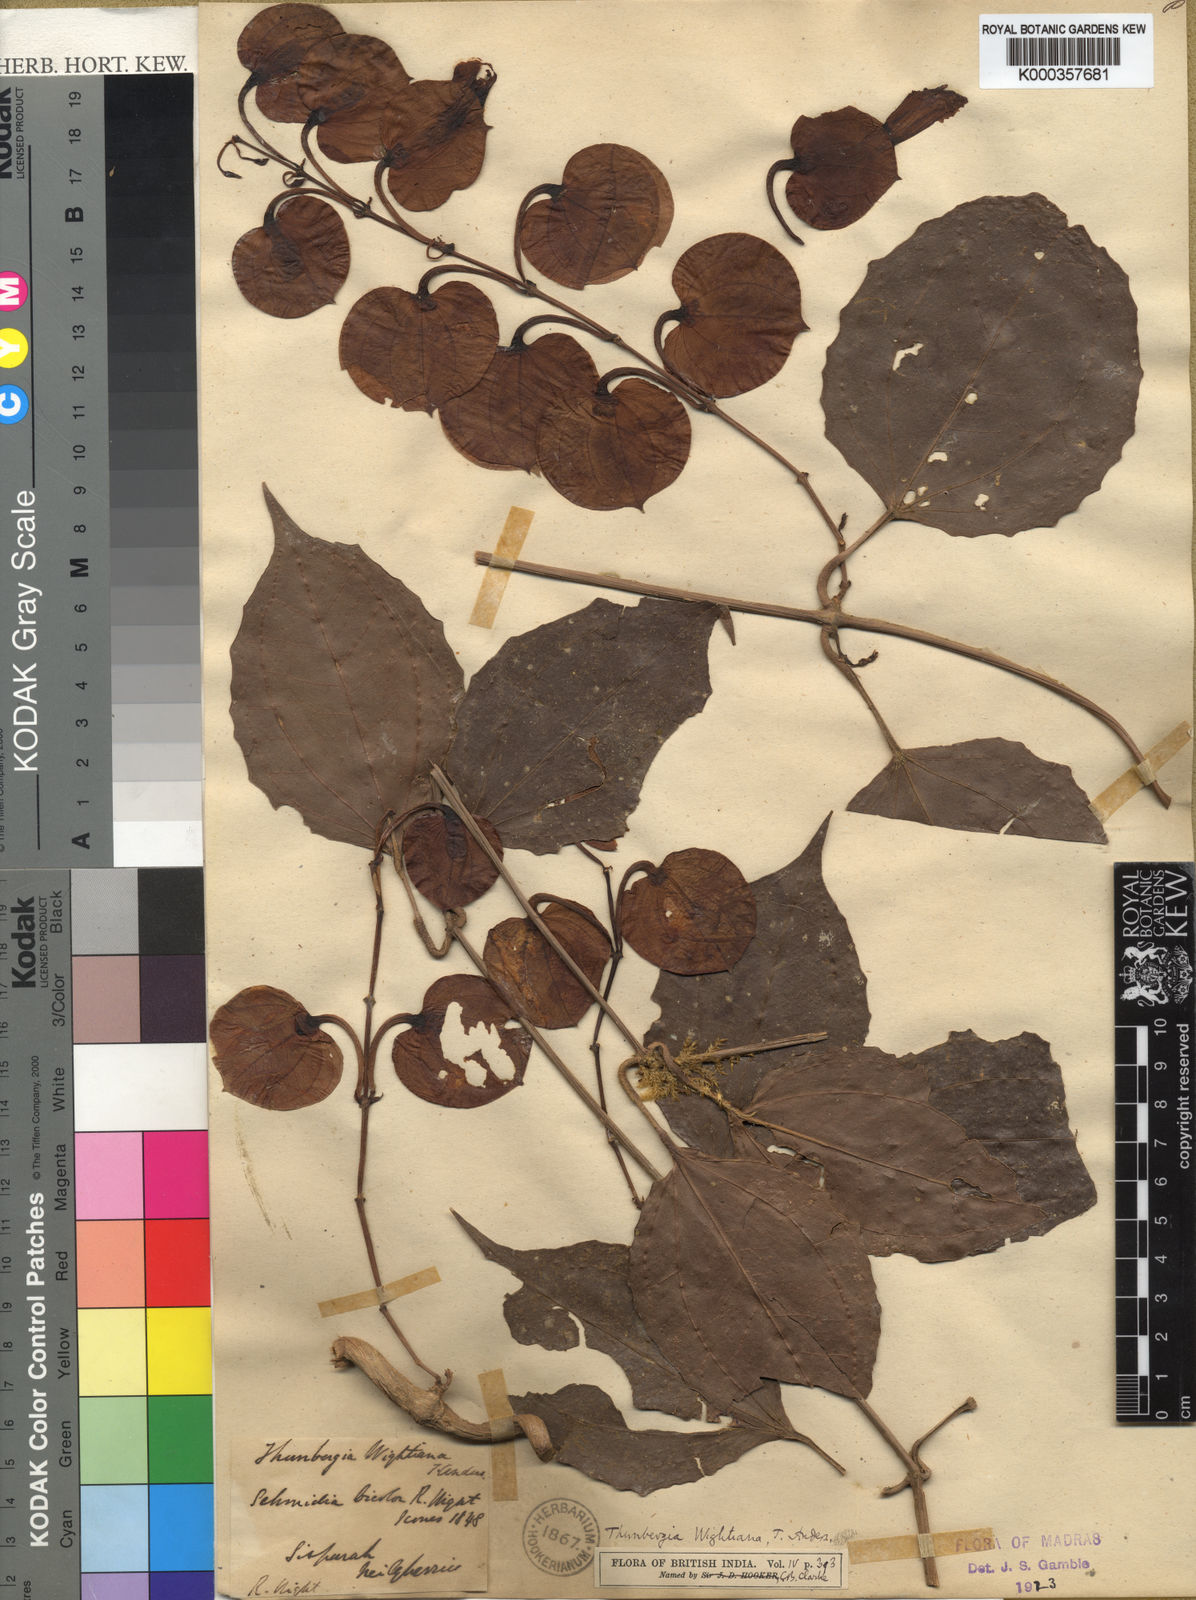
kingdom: Plantae
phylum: Tracheophyta
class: Magnoliopsida
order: Lamiales
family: Acanthaceae
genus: Thunbergia
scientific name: Thunbergia bicolor
